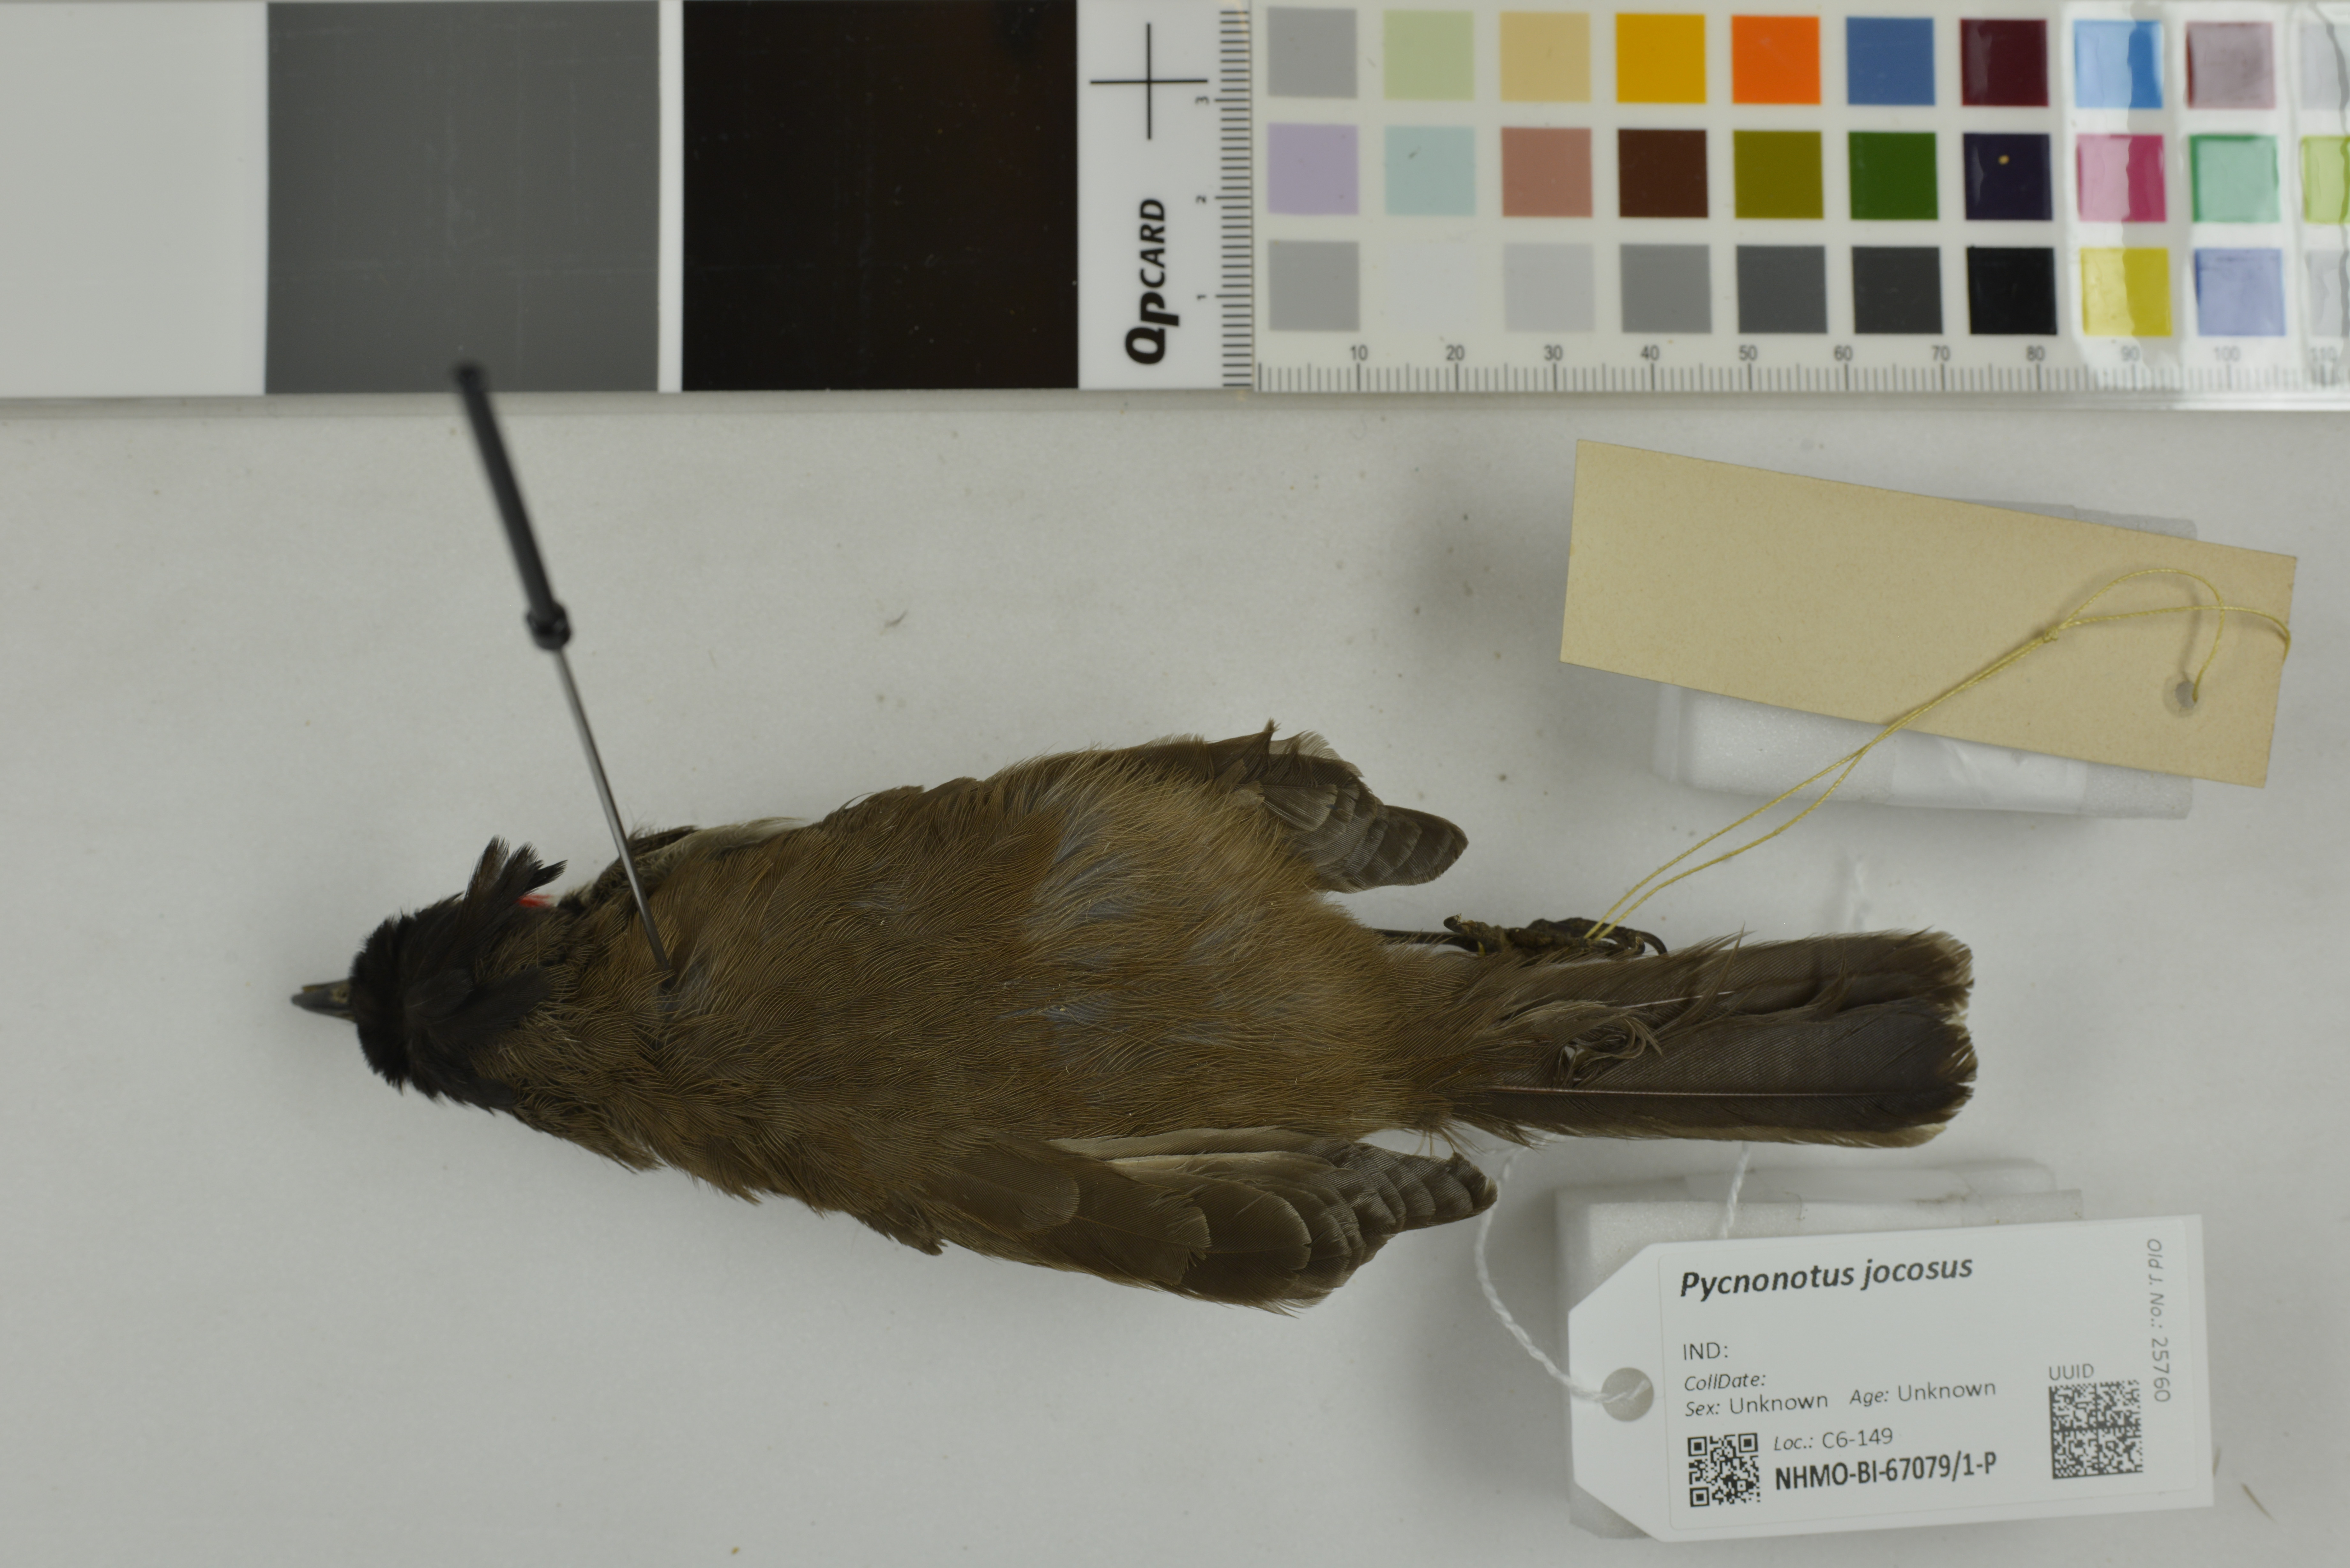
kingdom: Animalia
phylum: Chordata
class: Aves
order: Passeriformes
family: Pycnonotidae
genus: Pycnonotus
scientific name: Pycnonotus jocosus
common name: Red-whiskered bulbul
